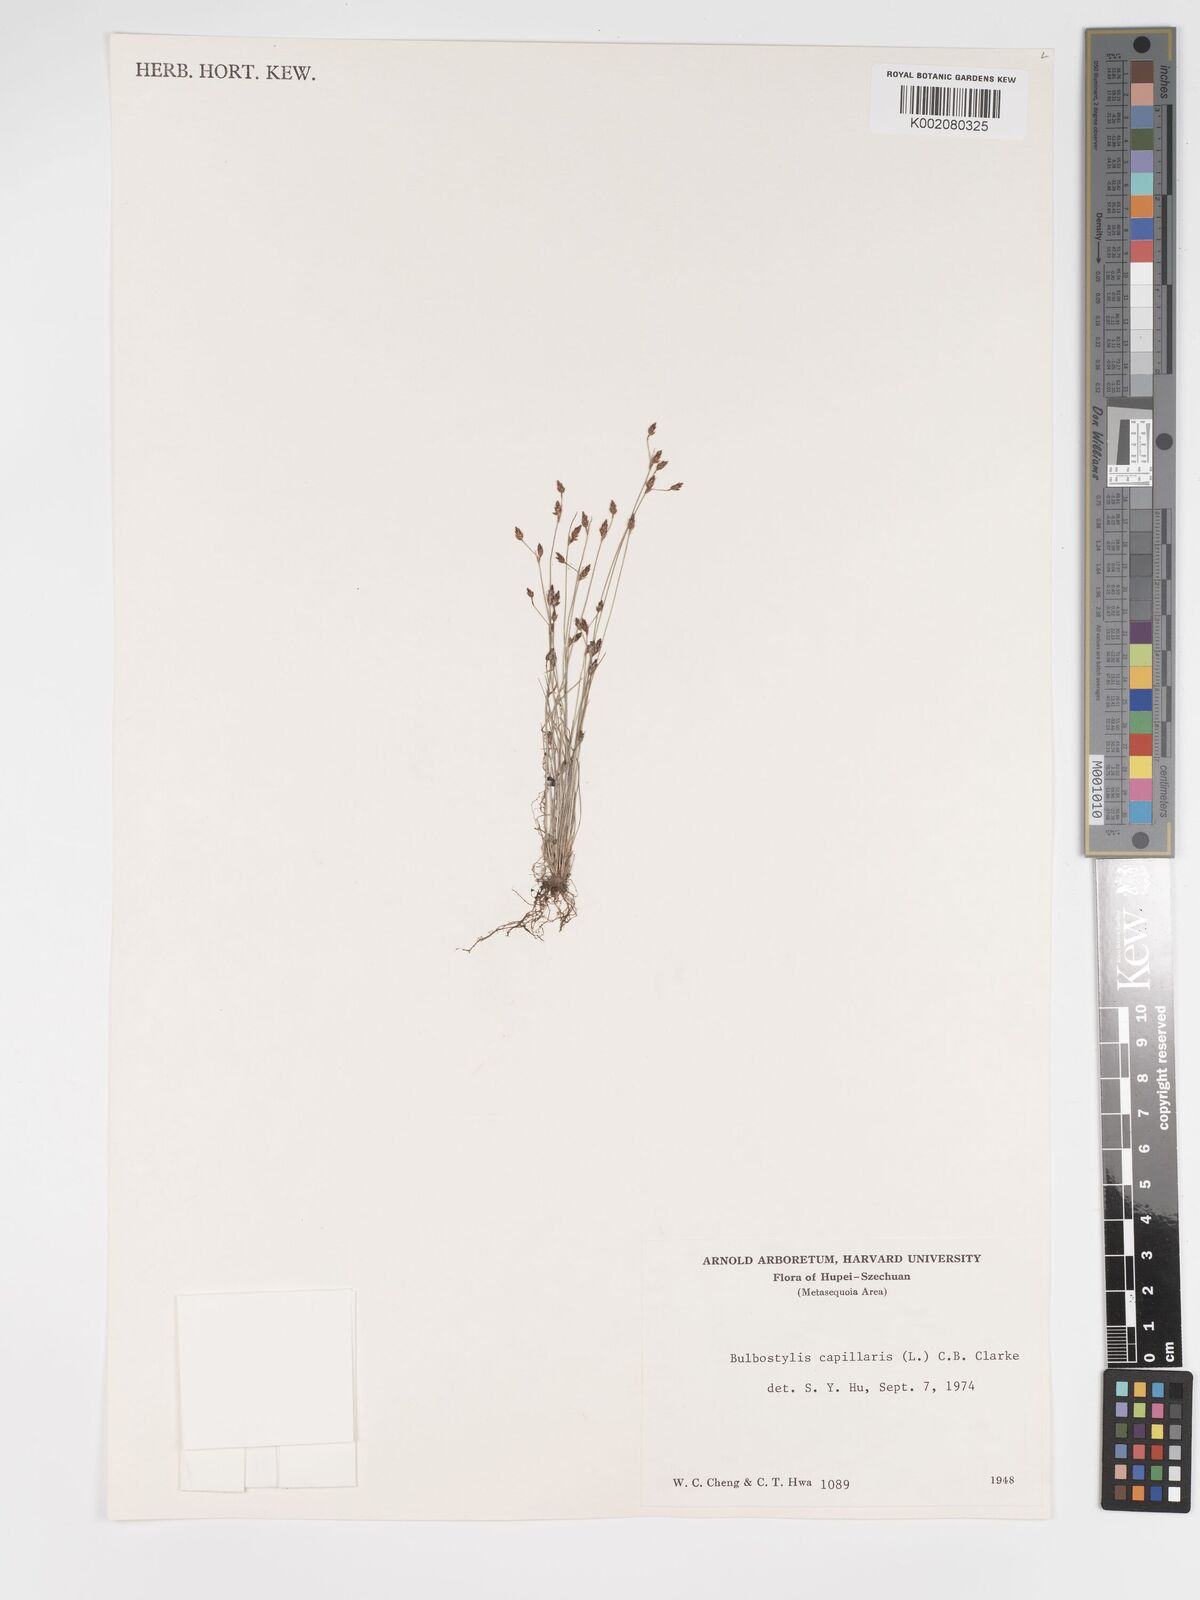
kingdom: Plantae
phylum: Tracheophyta
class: Liliopsida
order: Poales
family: Cyperaceae
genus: Bulbostylis
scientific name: Bulbostylis capillaris
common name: Densetuft hairsedge
